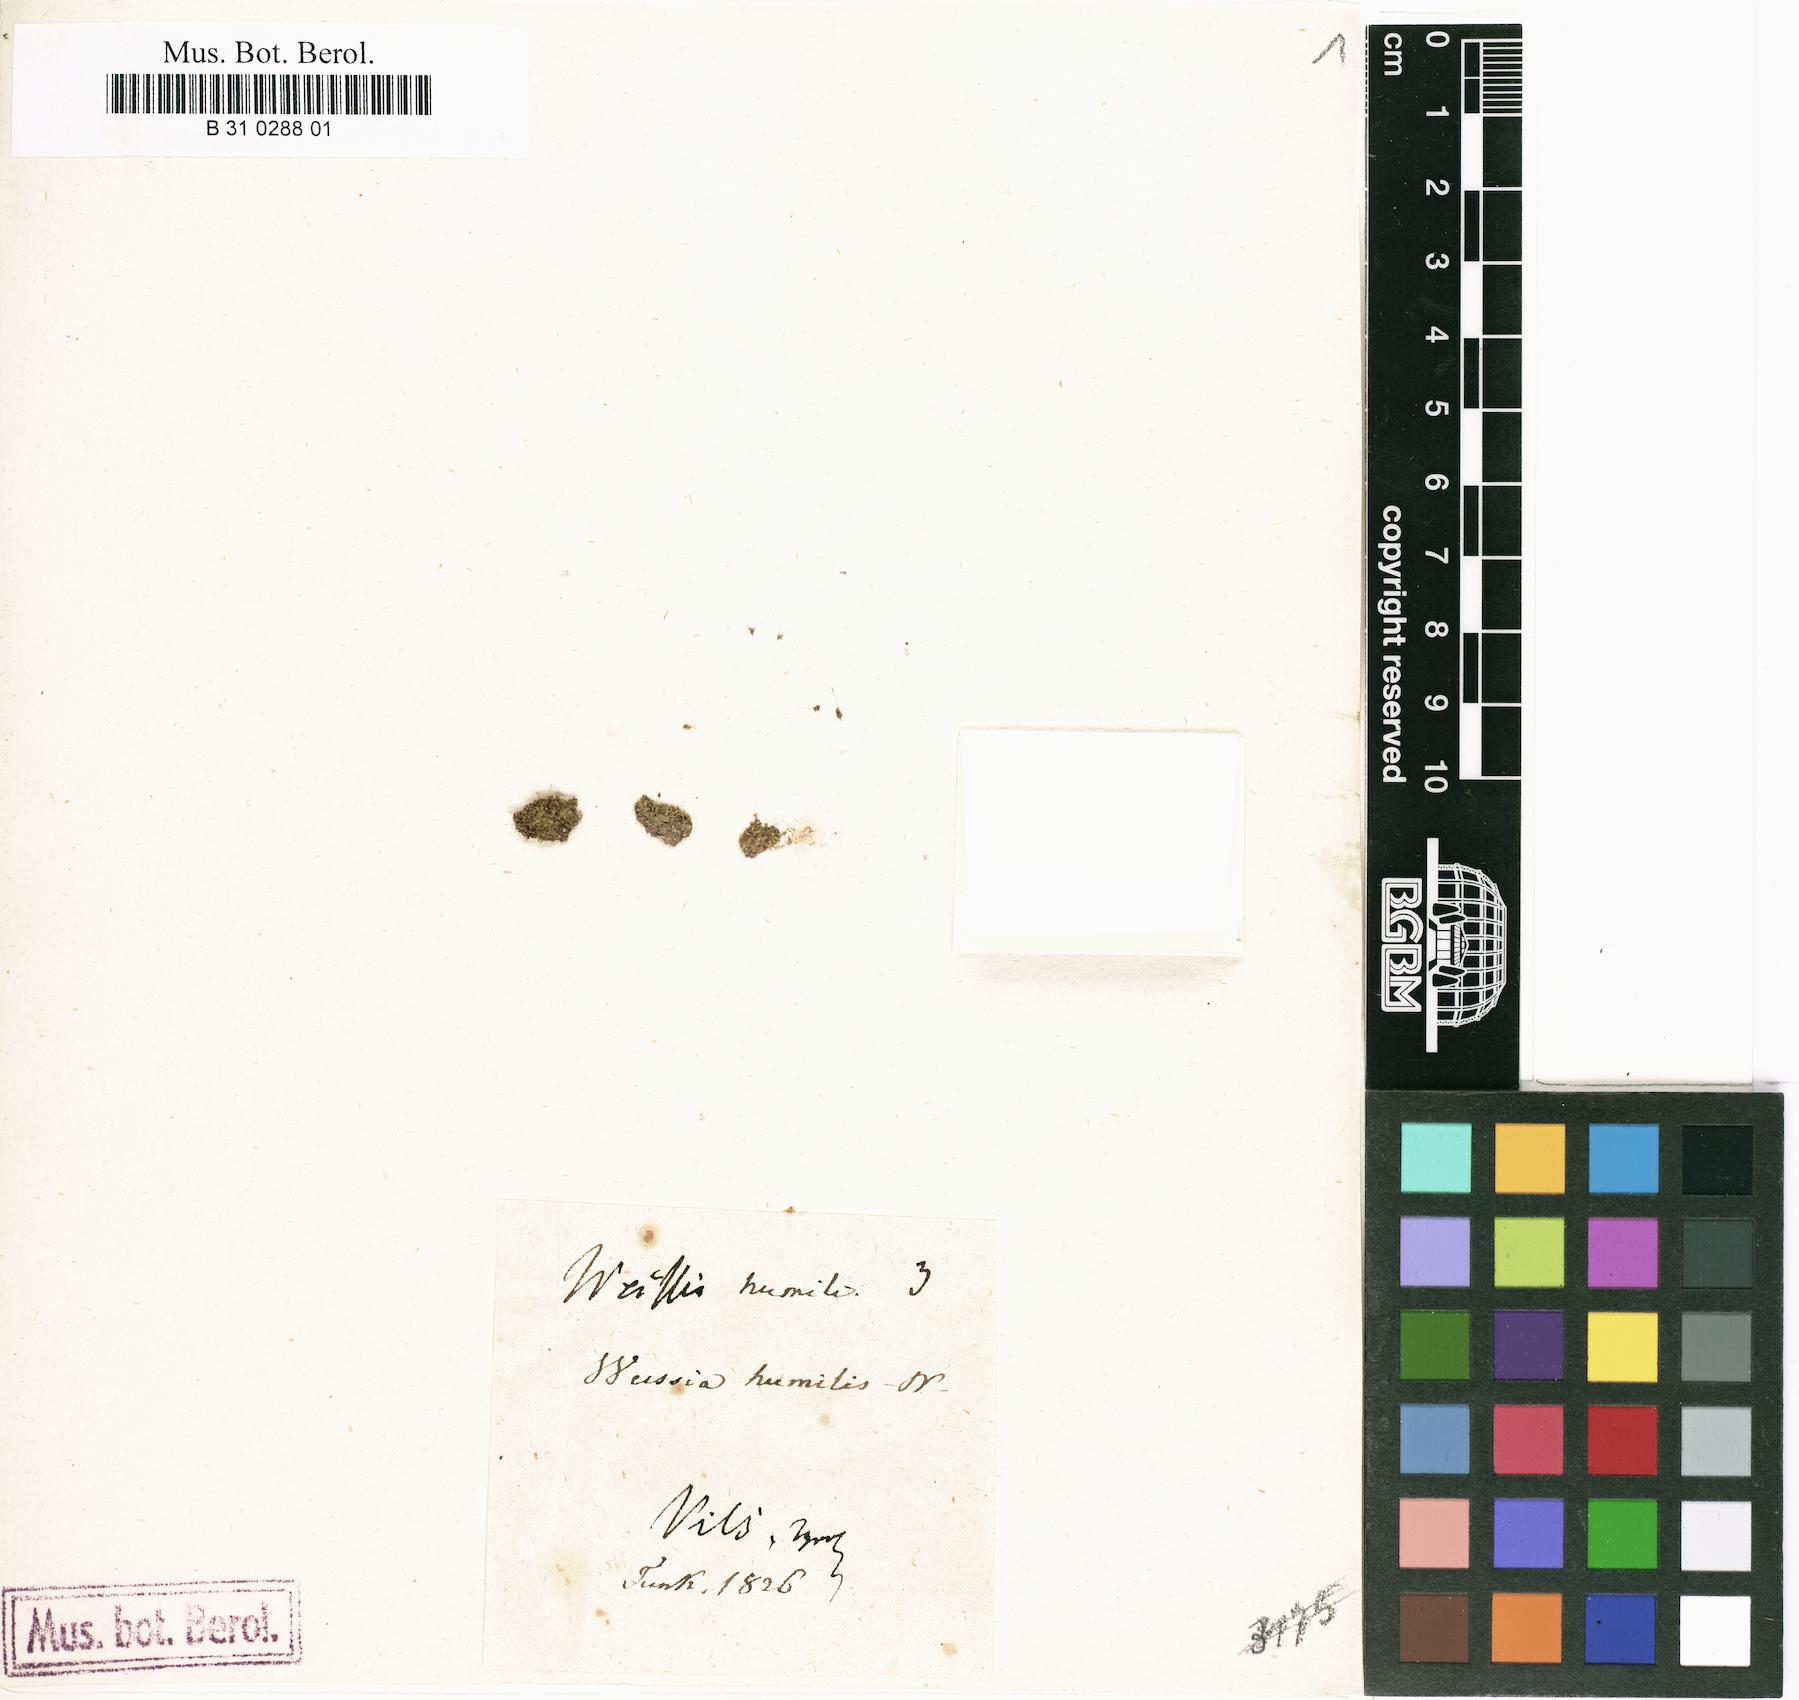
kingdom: Plantae
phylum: Bryophyta
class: Bryopsida
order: Pottiales
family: Pottiaceae
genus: Weissia
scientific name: Weissia controversa
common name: Green-tufted stubble moss
